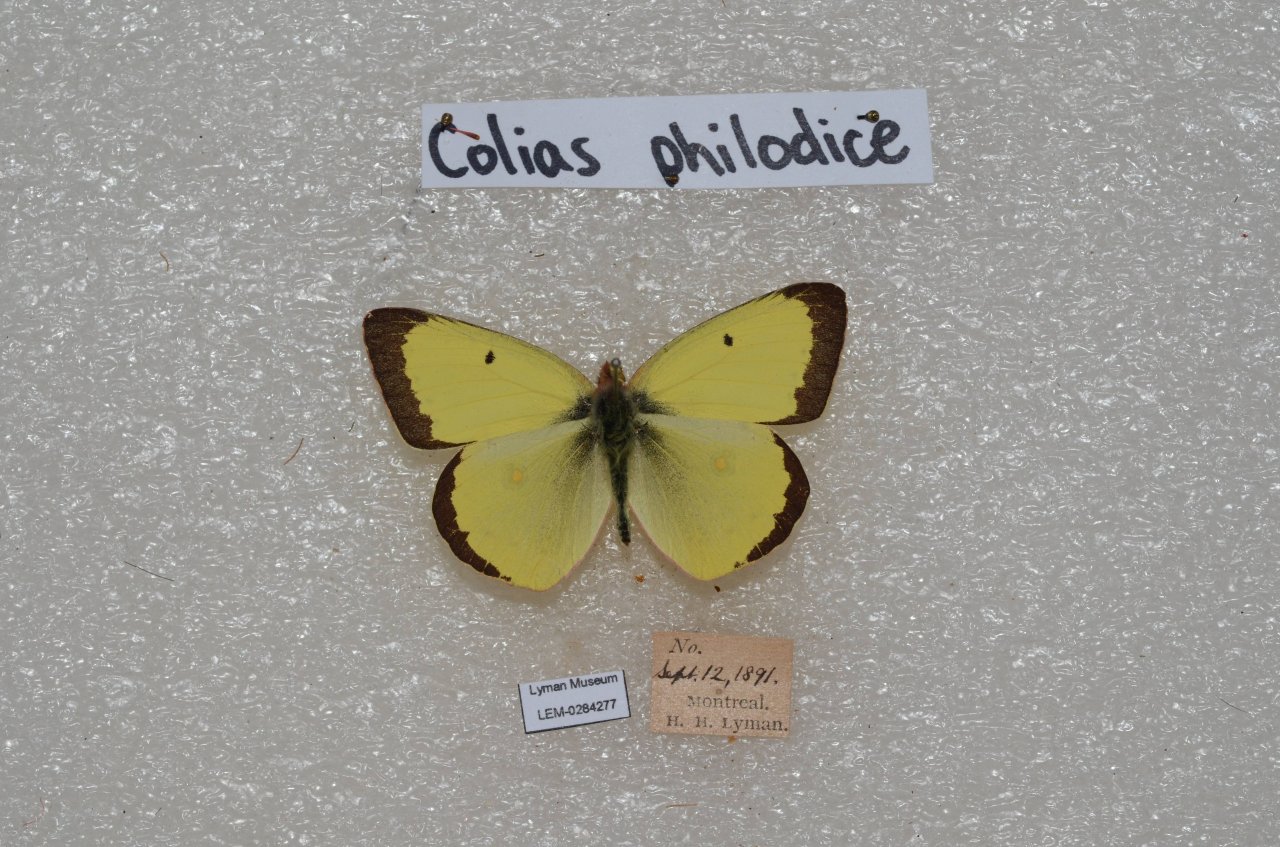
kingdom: Animalia
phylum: Arthropoda
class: Insecta
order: Lepidoptera
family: Pieridae
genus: Colias
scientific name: Colias philodice
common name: Clouded Sulphur
